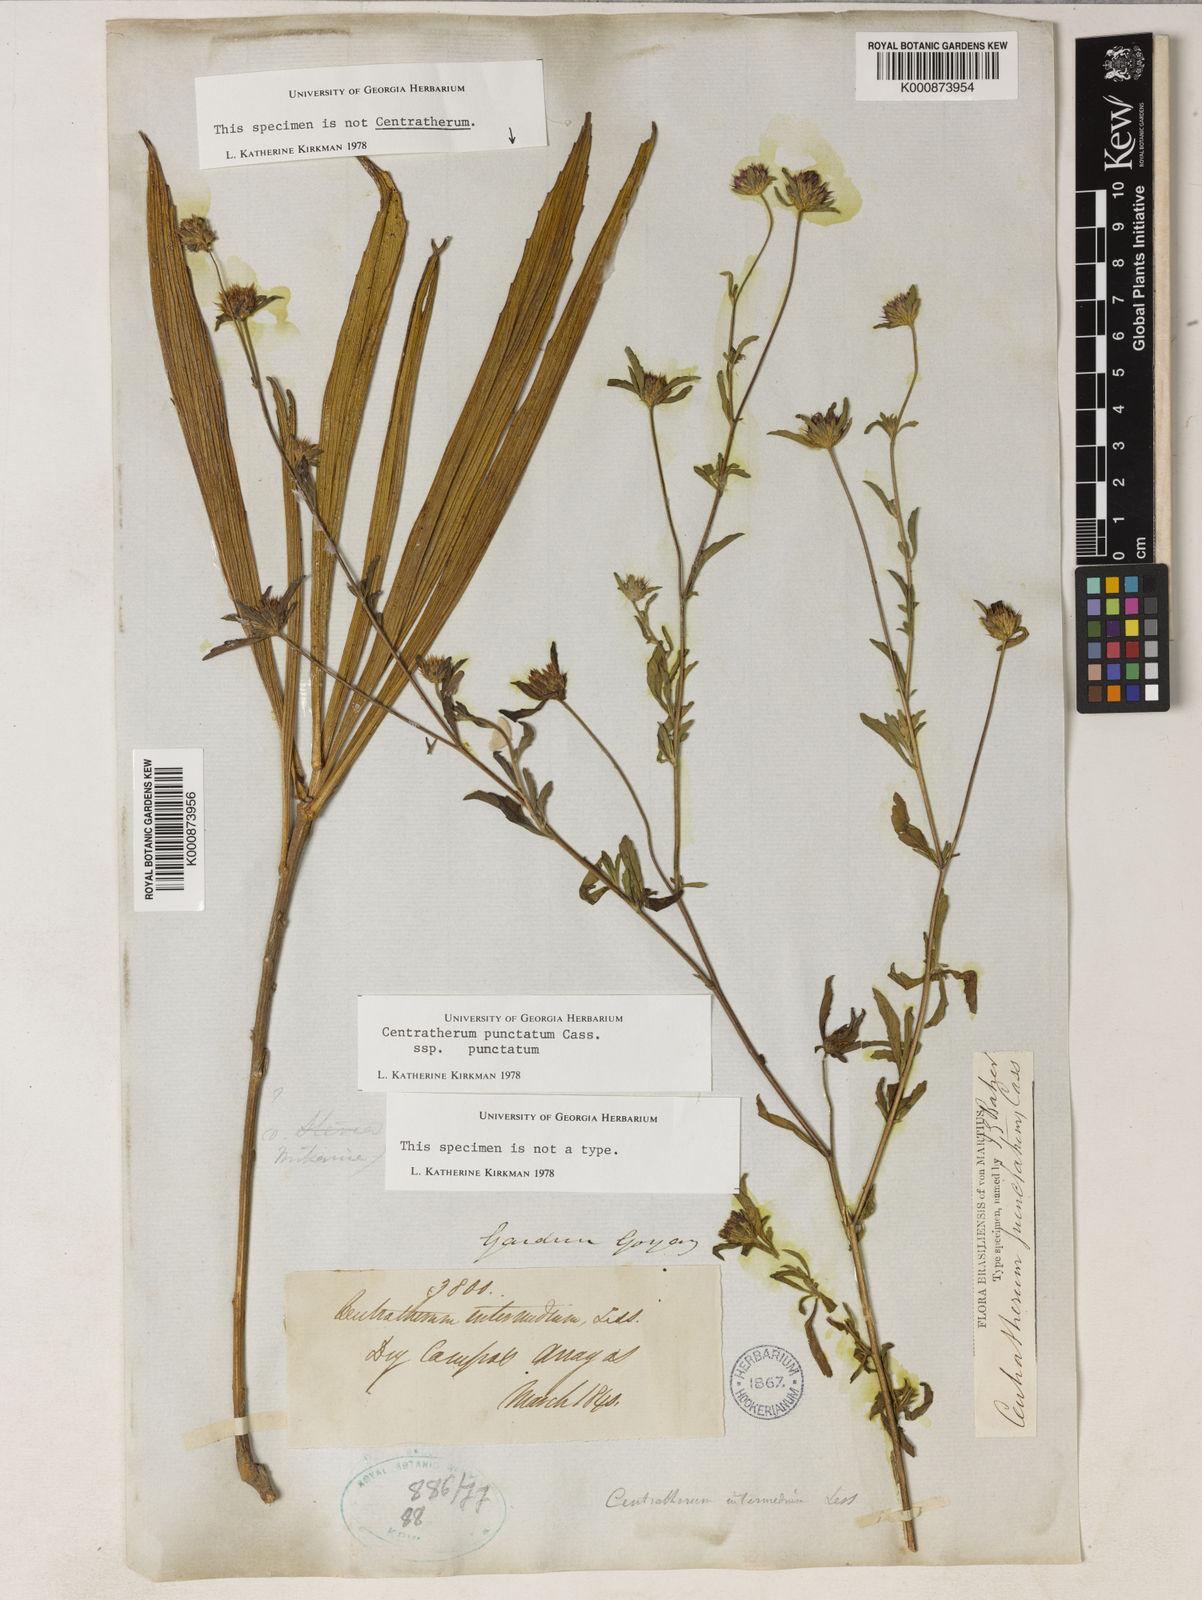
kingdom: Plantae
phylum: Tracheophyta
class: Magnoliopsida
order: Asterales
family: Asteraceae
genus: Centratherum
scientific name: Centratherum punctatum
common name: Larkdaisy
